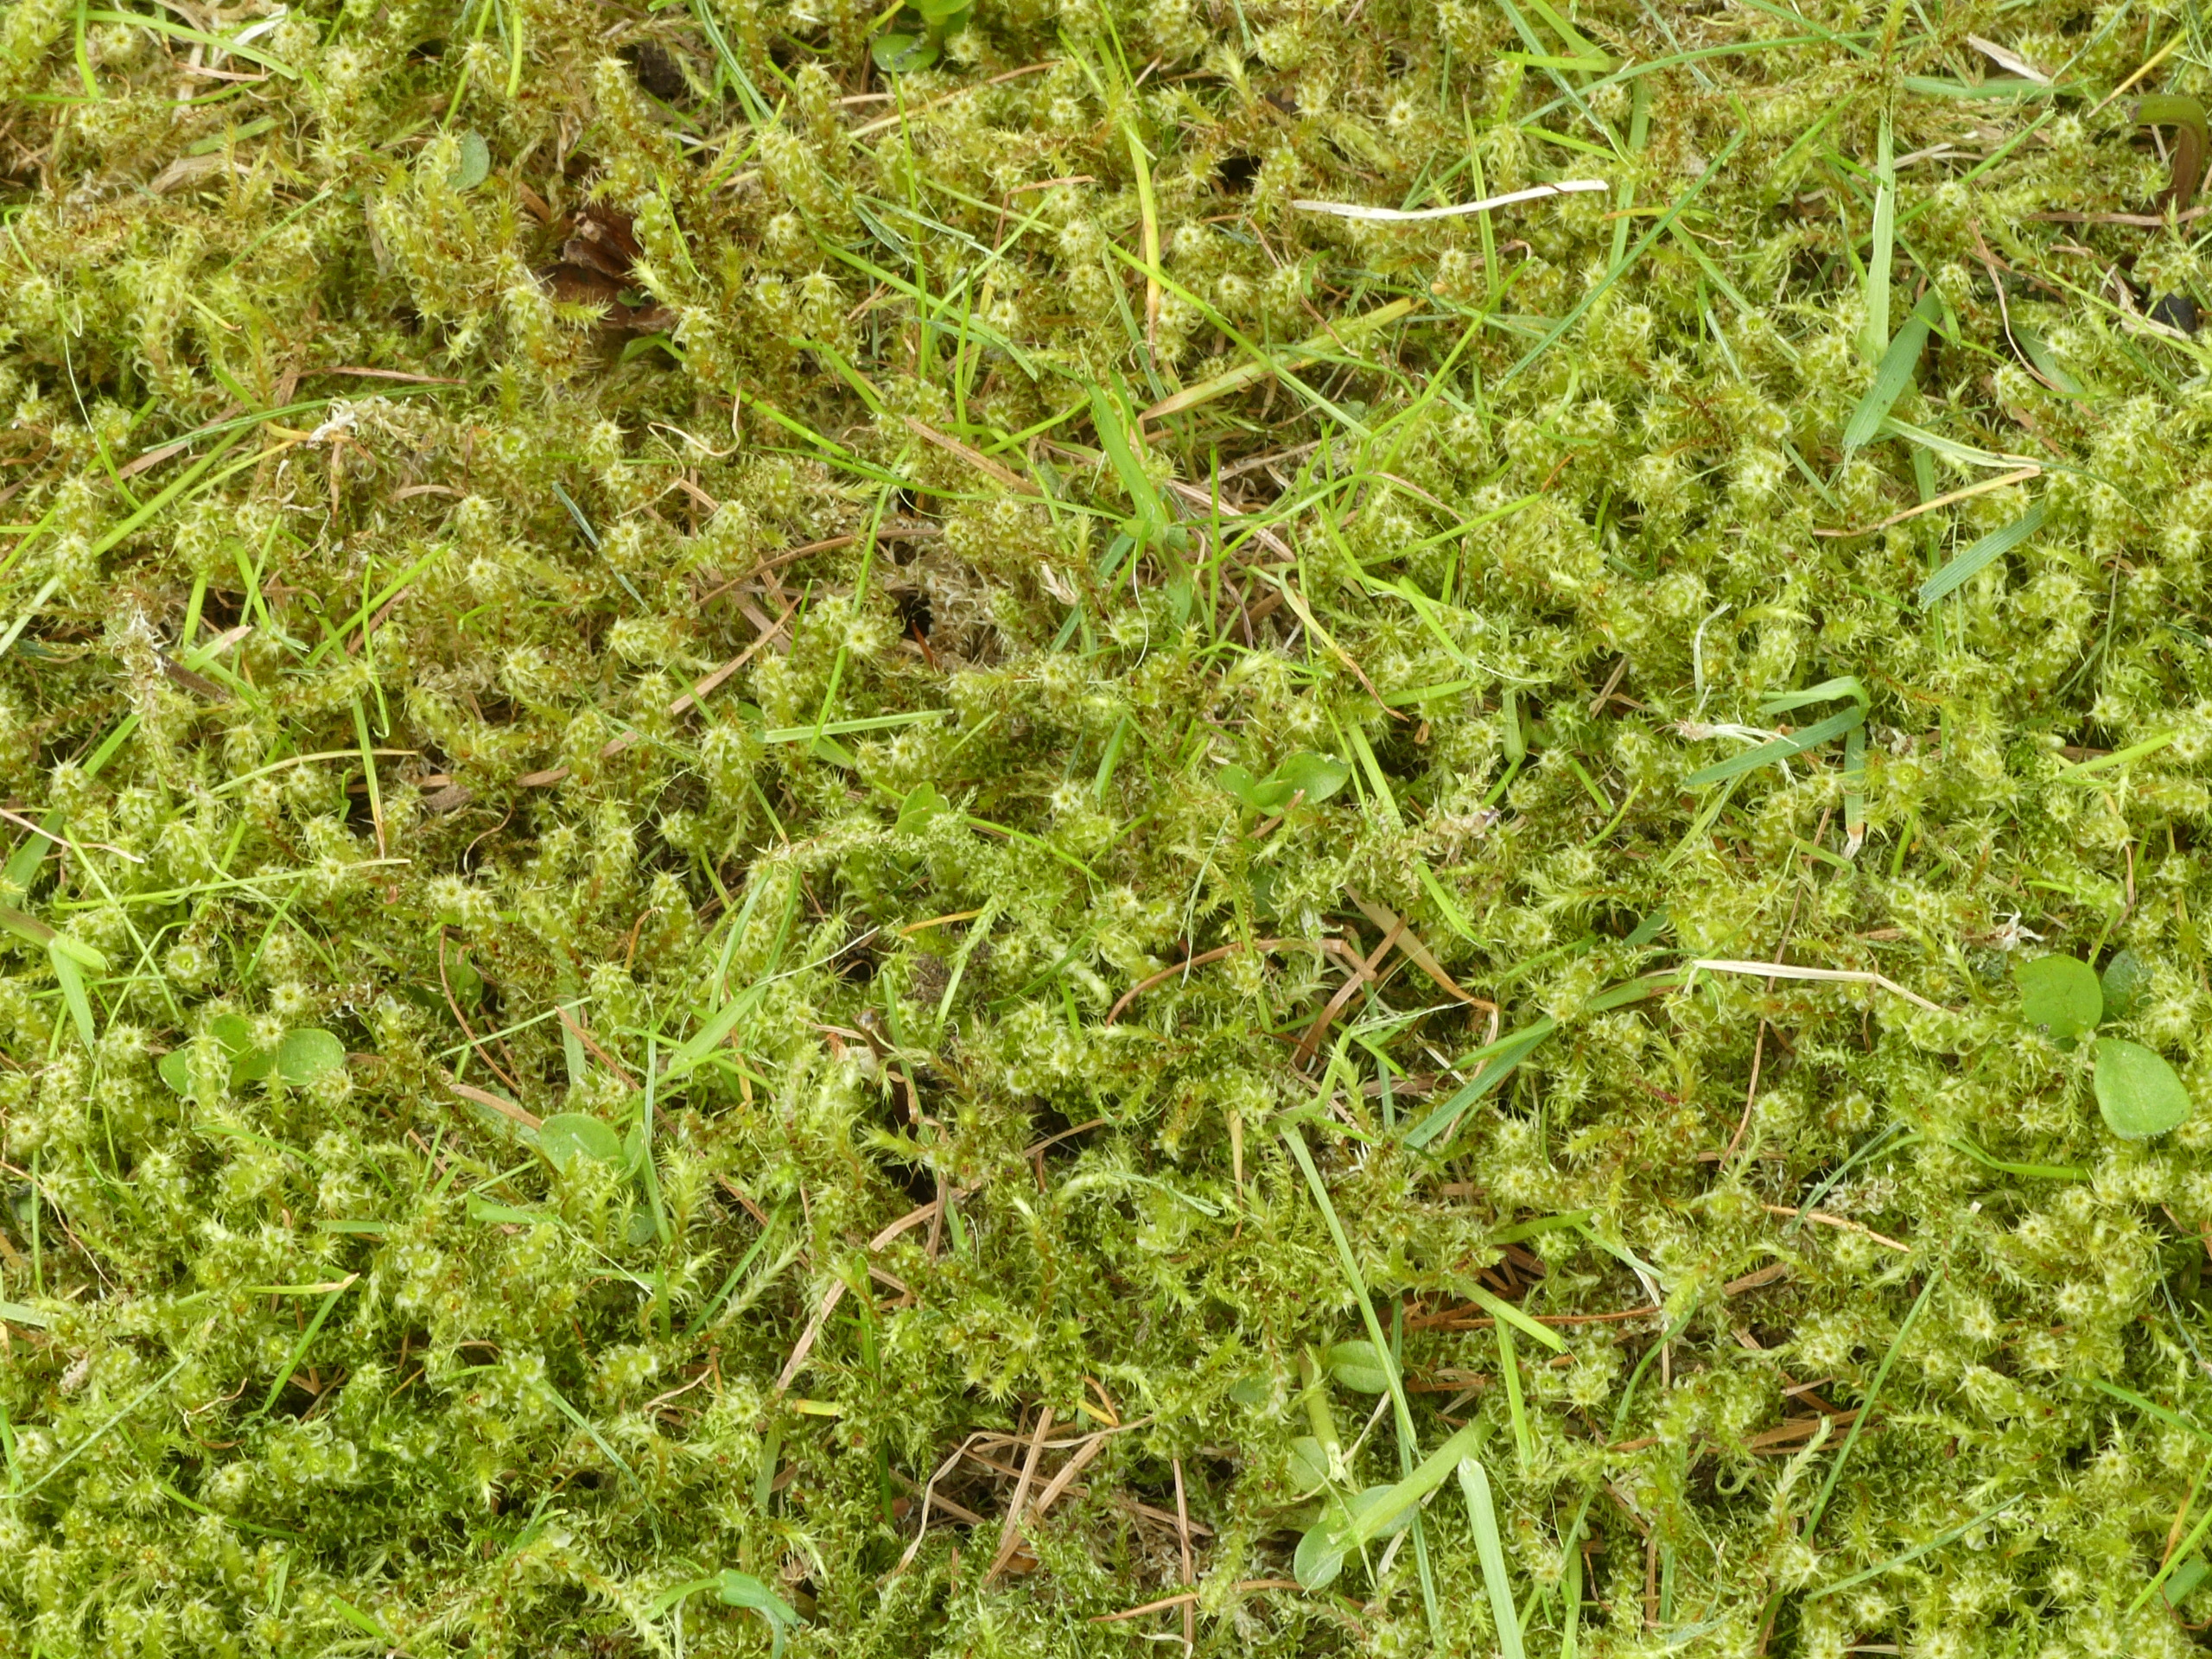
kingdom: Plantae
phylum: Bryophyta
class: Bryopsida
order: Hypnales
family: Hylocomiaceae
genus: Rhytidiadelphus
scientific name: Rhytidiadelphus squarrosus
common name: Plæne-kransemos
